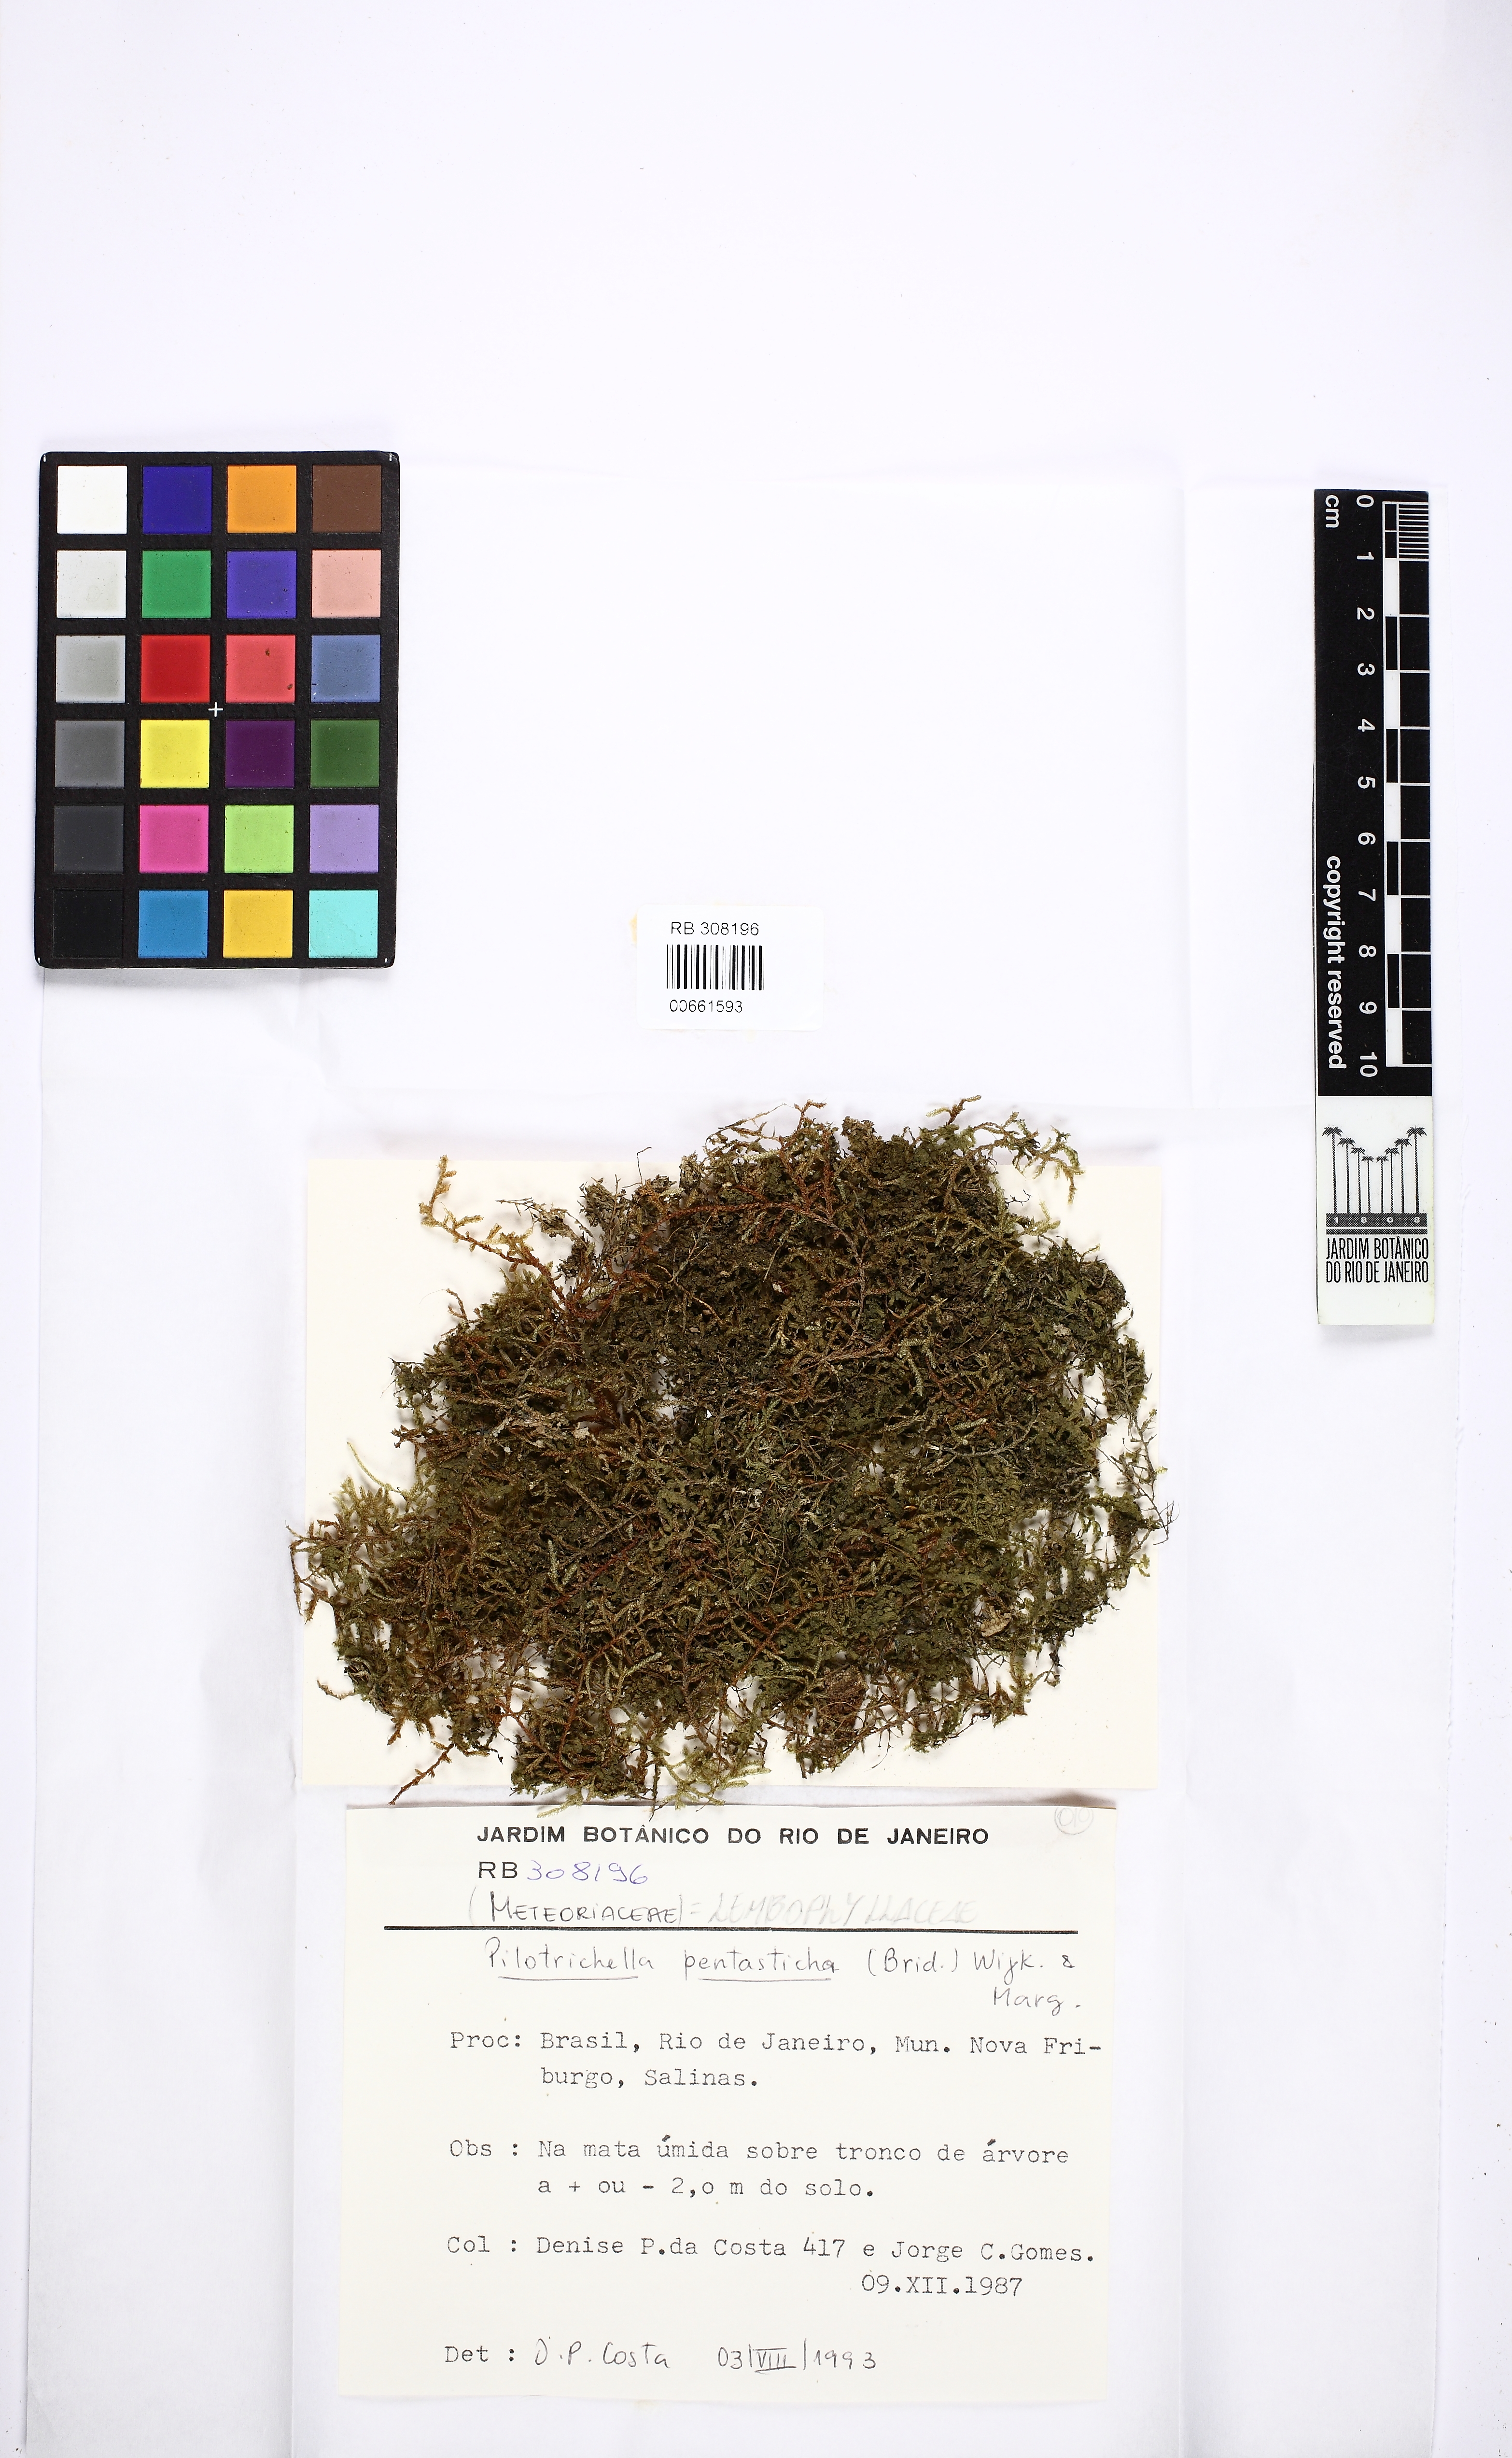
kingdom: Plantae
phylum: Bryophyta
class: Bryopsida
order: Hypnales
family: Pterobryaceae
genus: Orthostichidium
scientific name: Orthostichidium pentastichum
